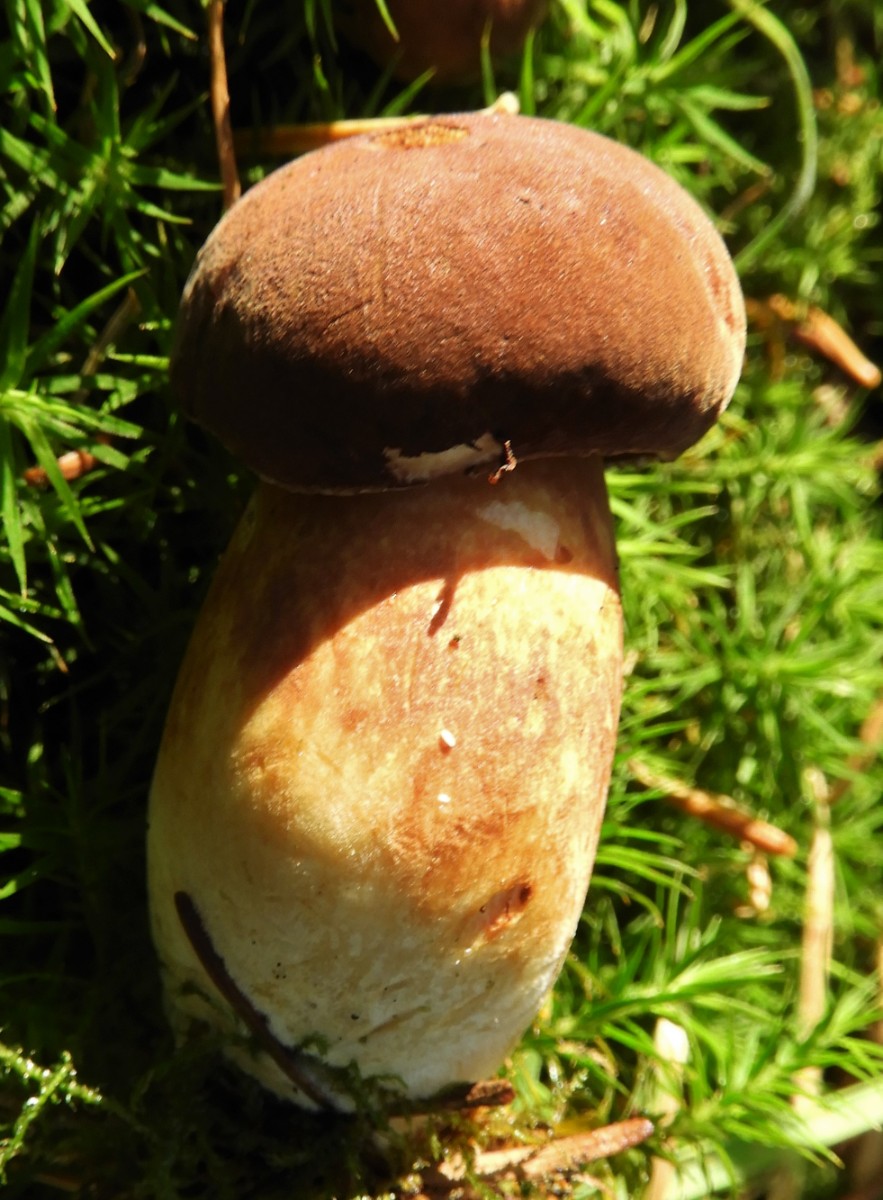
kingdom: Fungi
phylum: Basidiomycota
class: Agaricomycetes
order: Boletales
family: Boletaceae
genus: Imleria
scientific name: Imleria badia
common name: brunstokket rørhat
